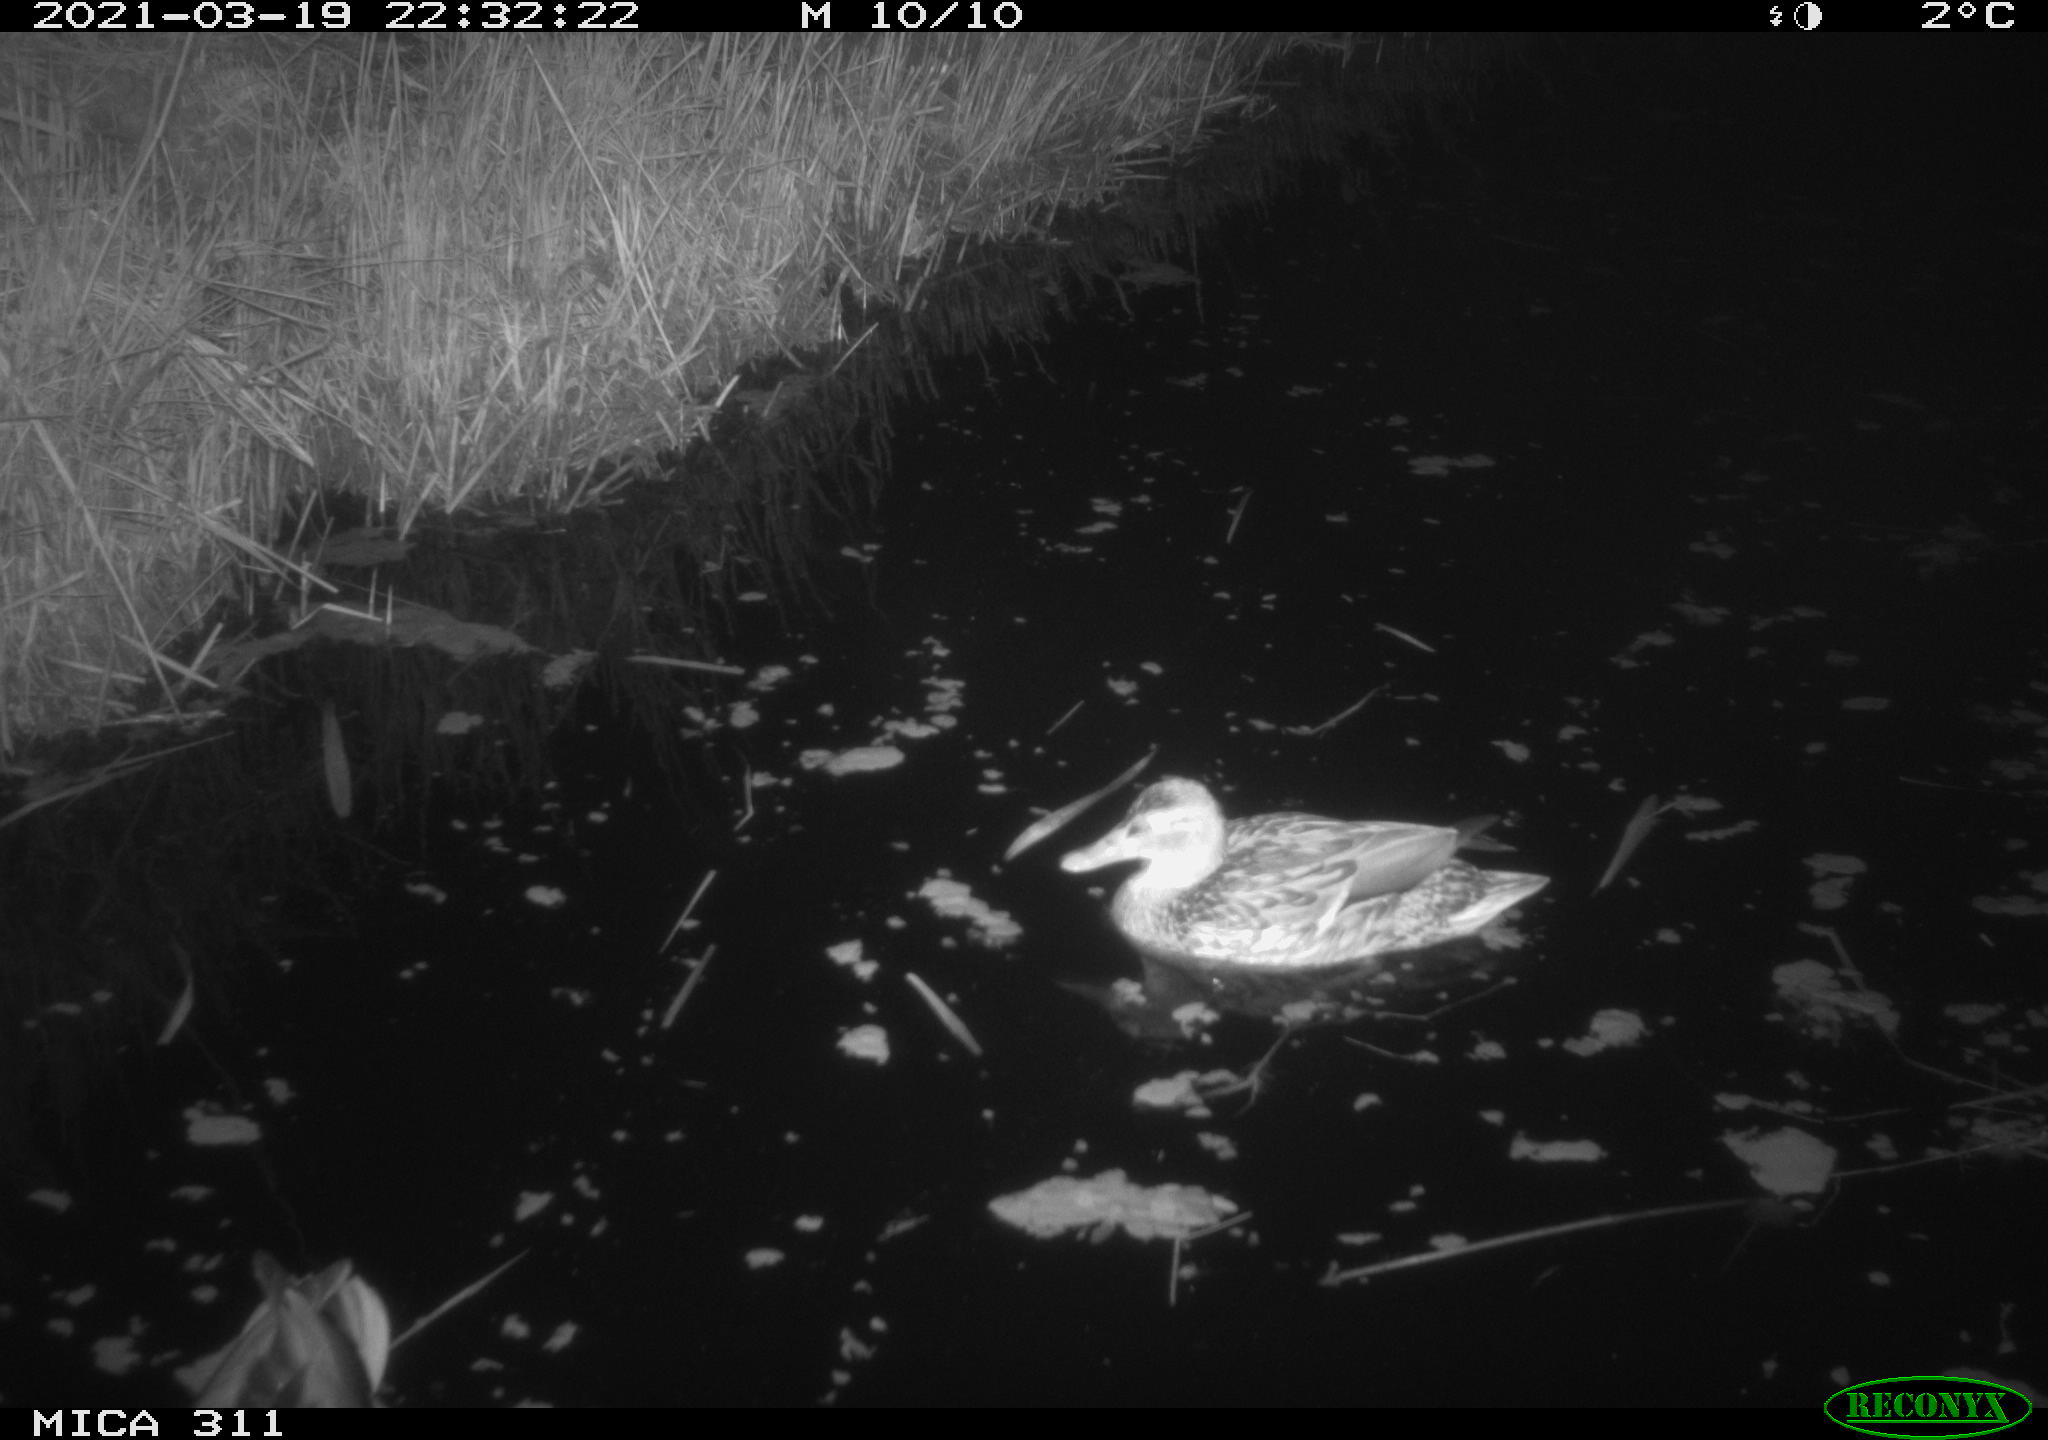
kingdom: Animalia
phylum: Chordata
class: Aves
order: Anseriformes
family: Anatidae
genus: Anas
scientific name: Anas
